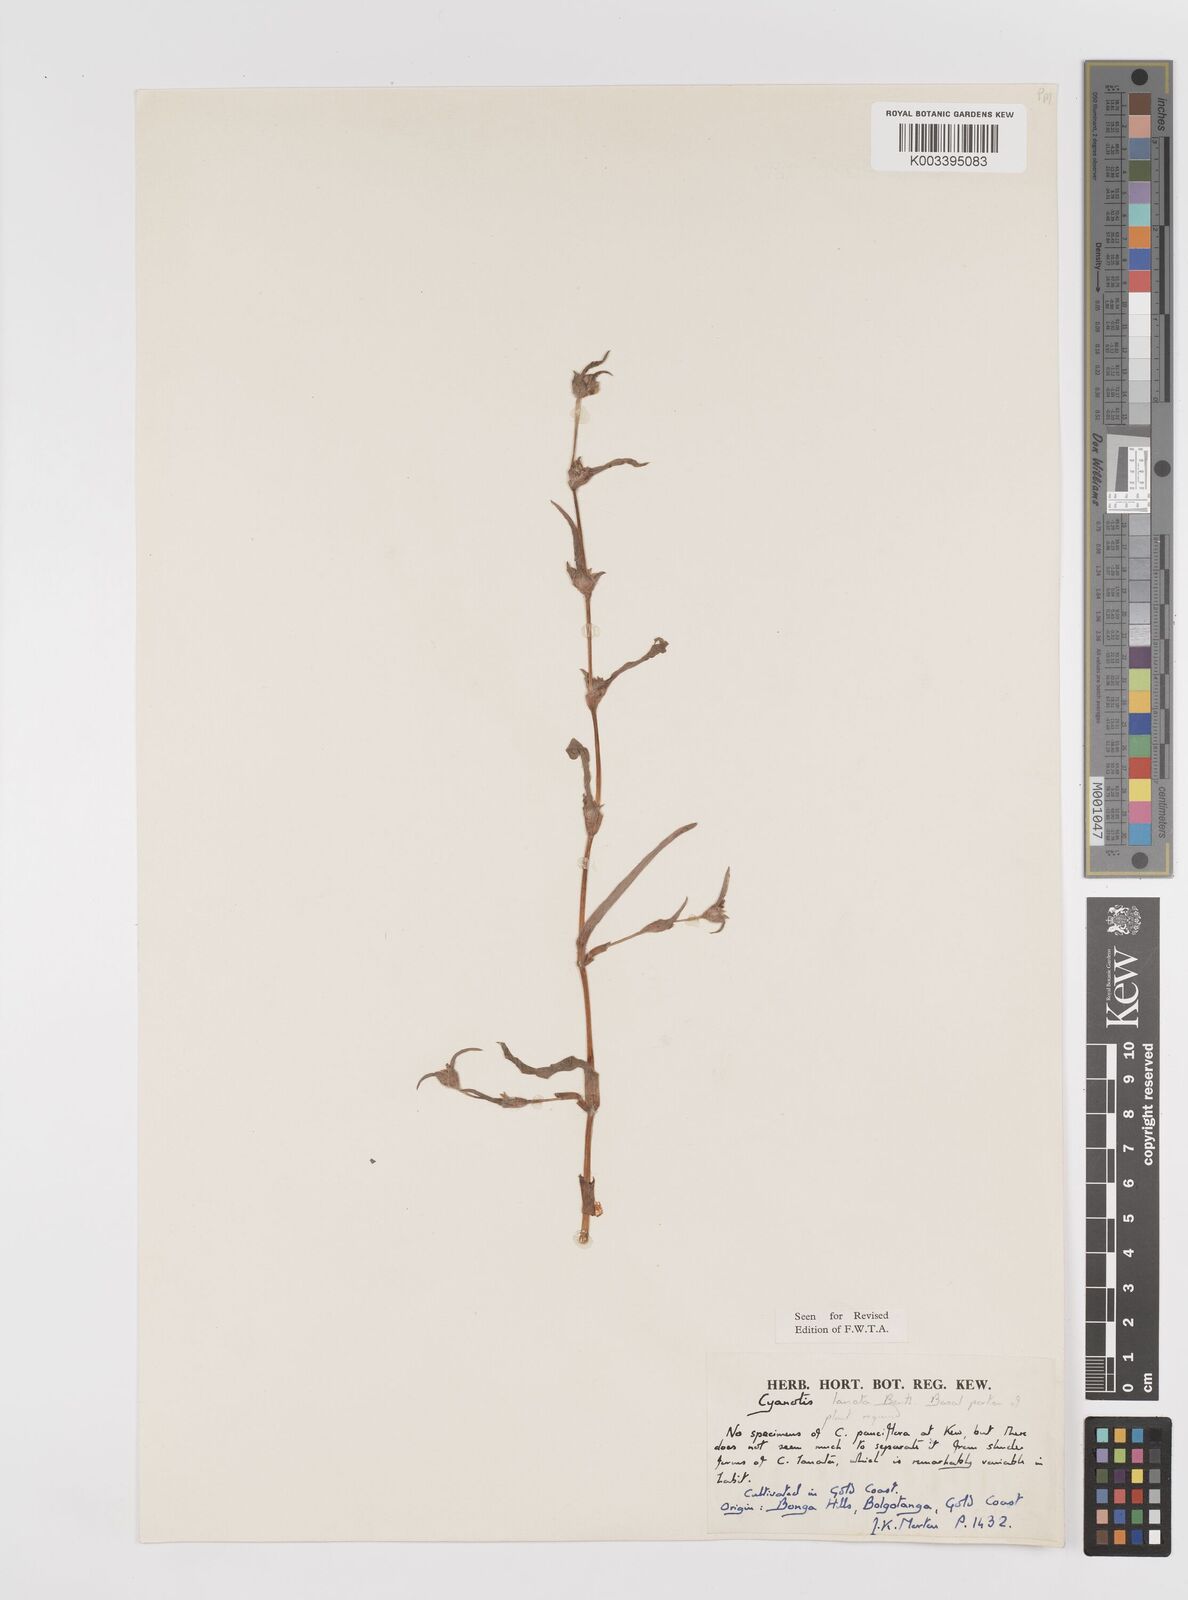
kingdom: Plantae
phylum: Tracheophyta
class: Liliopsida
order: Commelinales
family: Commelinaceae
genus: Cyanotis
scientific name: Cyanotis lanata
